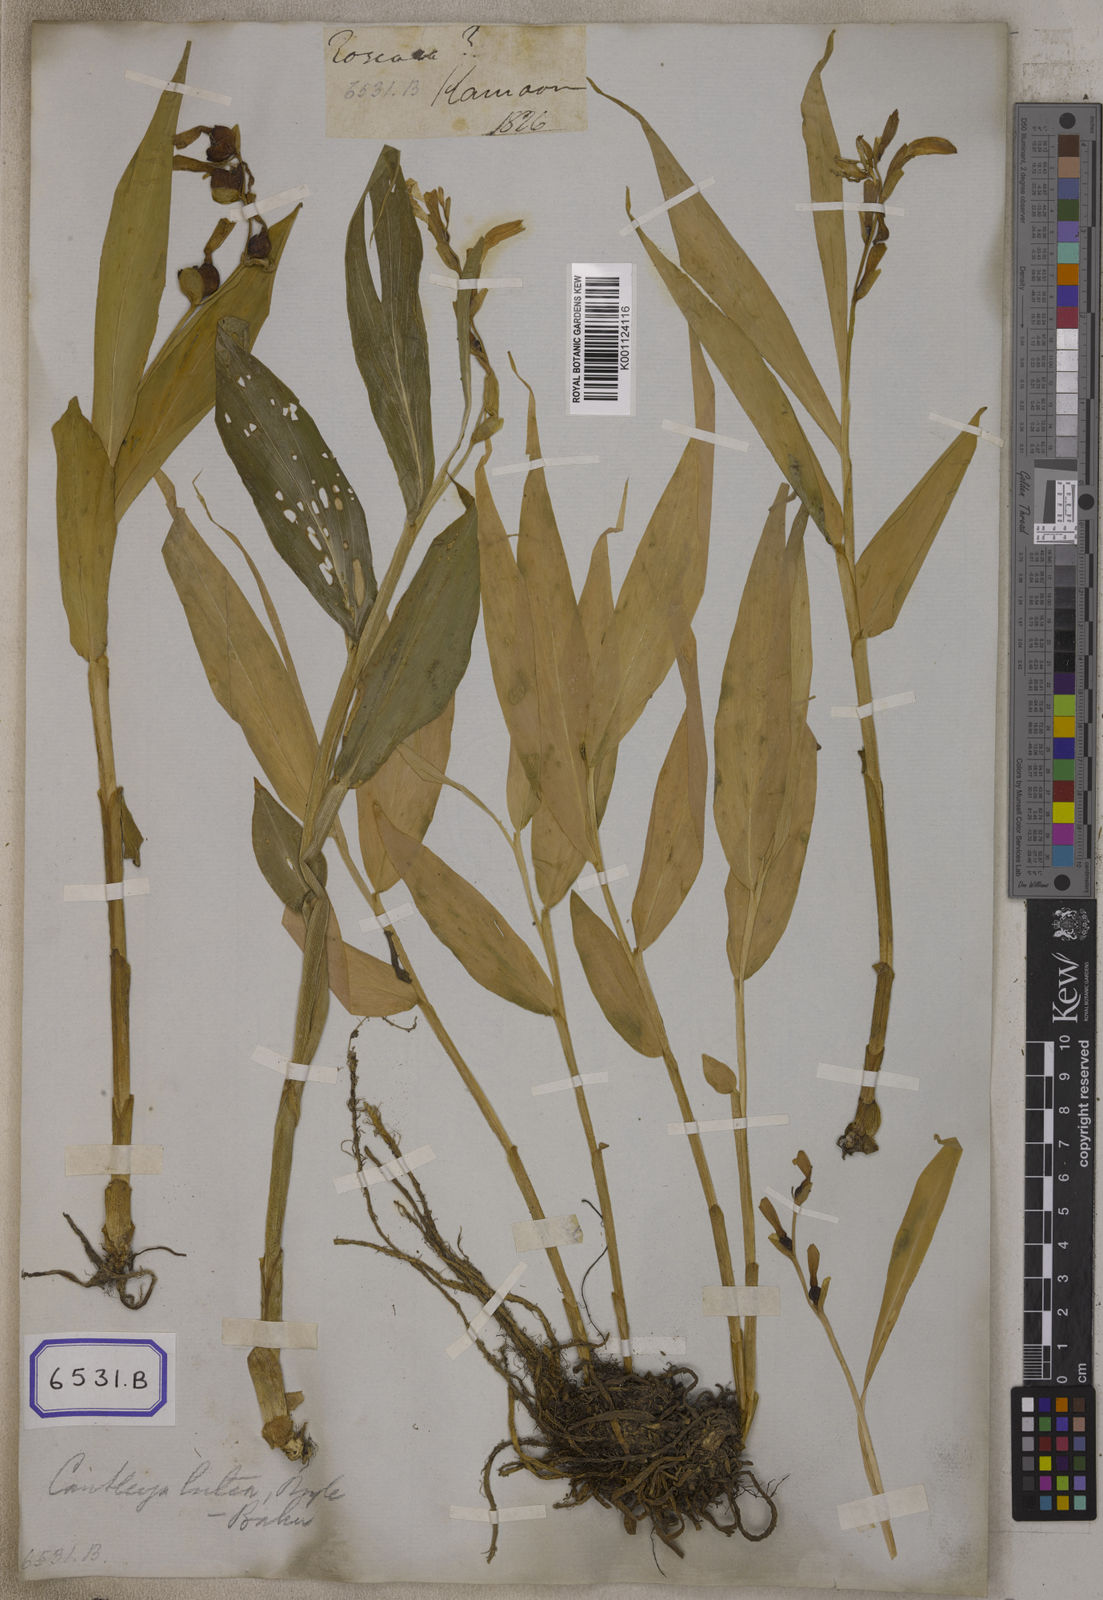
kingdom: Plantae
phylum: Tracheophyta
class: Liliopsida
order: Zingiberales
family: Zingiberaceae
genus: Cautleya
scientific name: Cautleya gracilis
